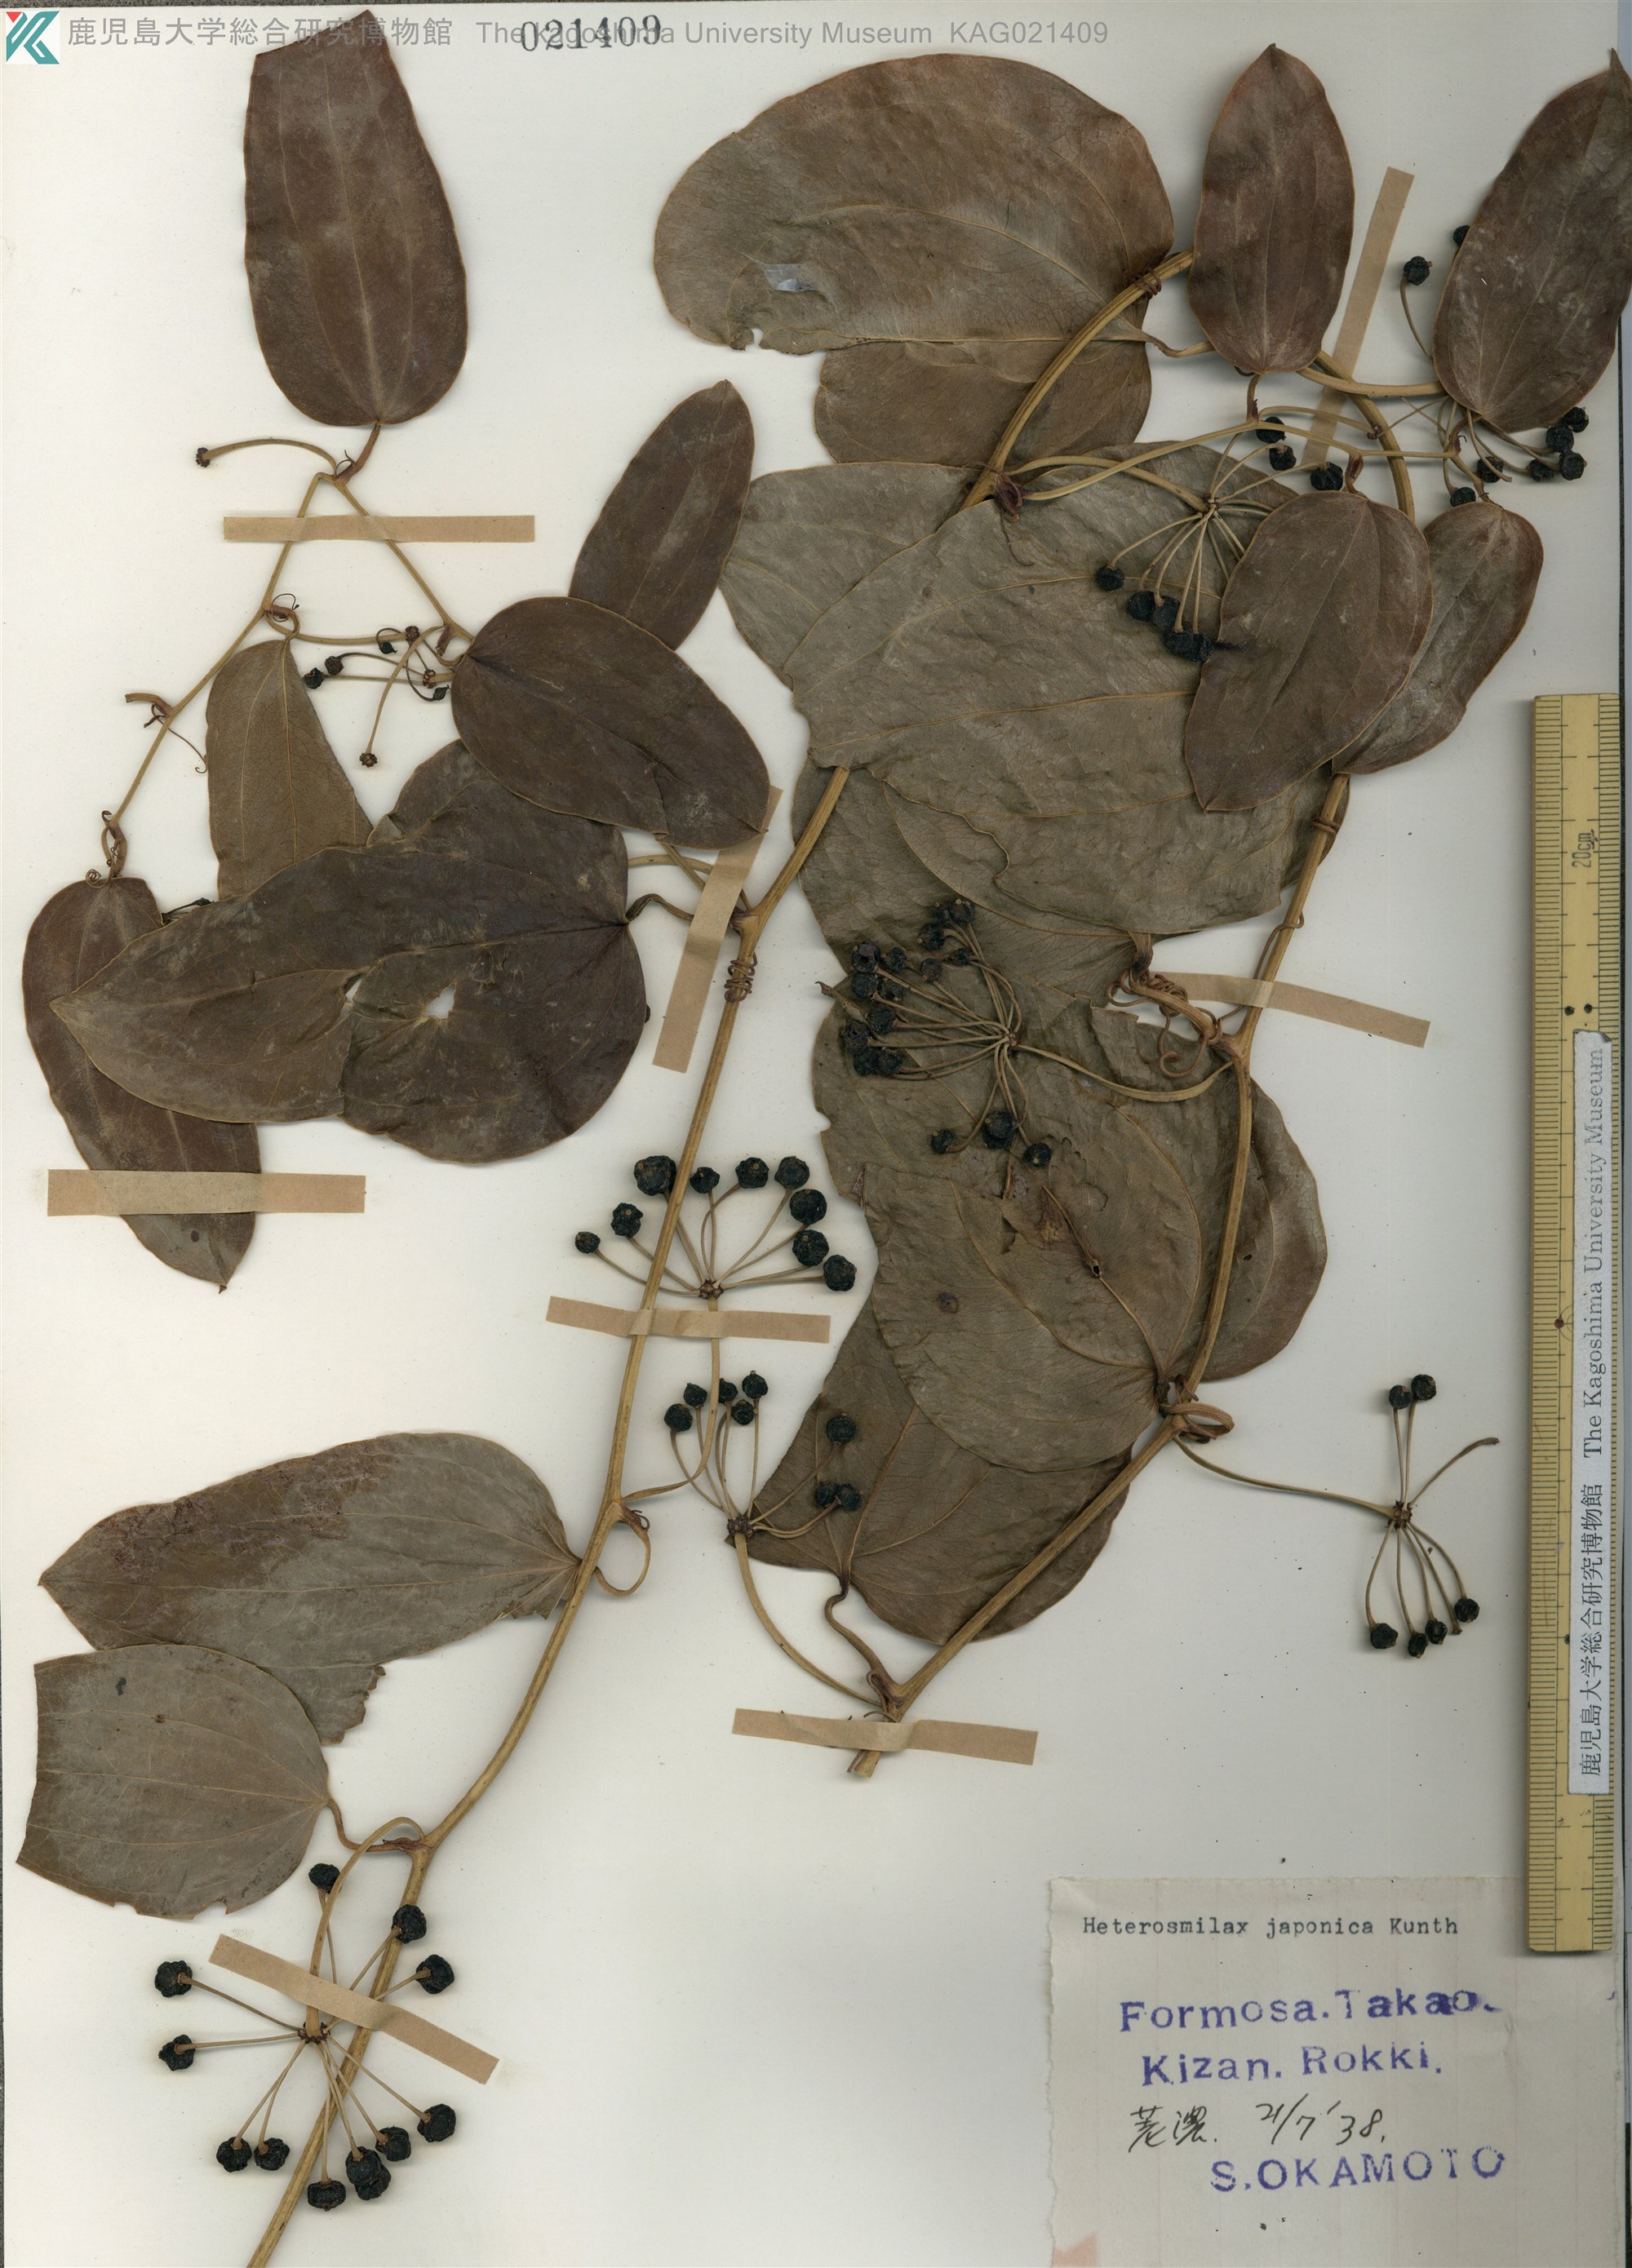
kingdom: Plantae
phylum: Tracheophyta
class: Liliopsida
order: Liliales
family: Smilacaceae
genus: Smilax
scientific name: Smilax insularis
